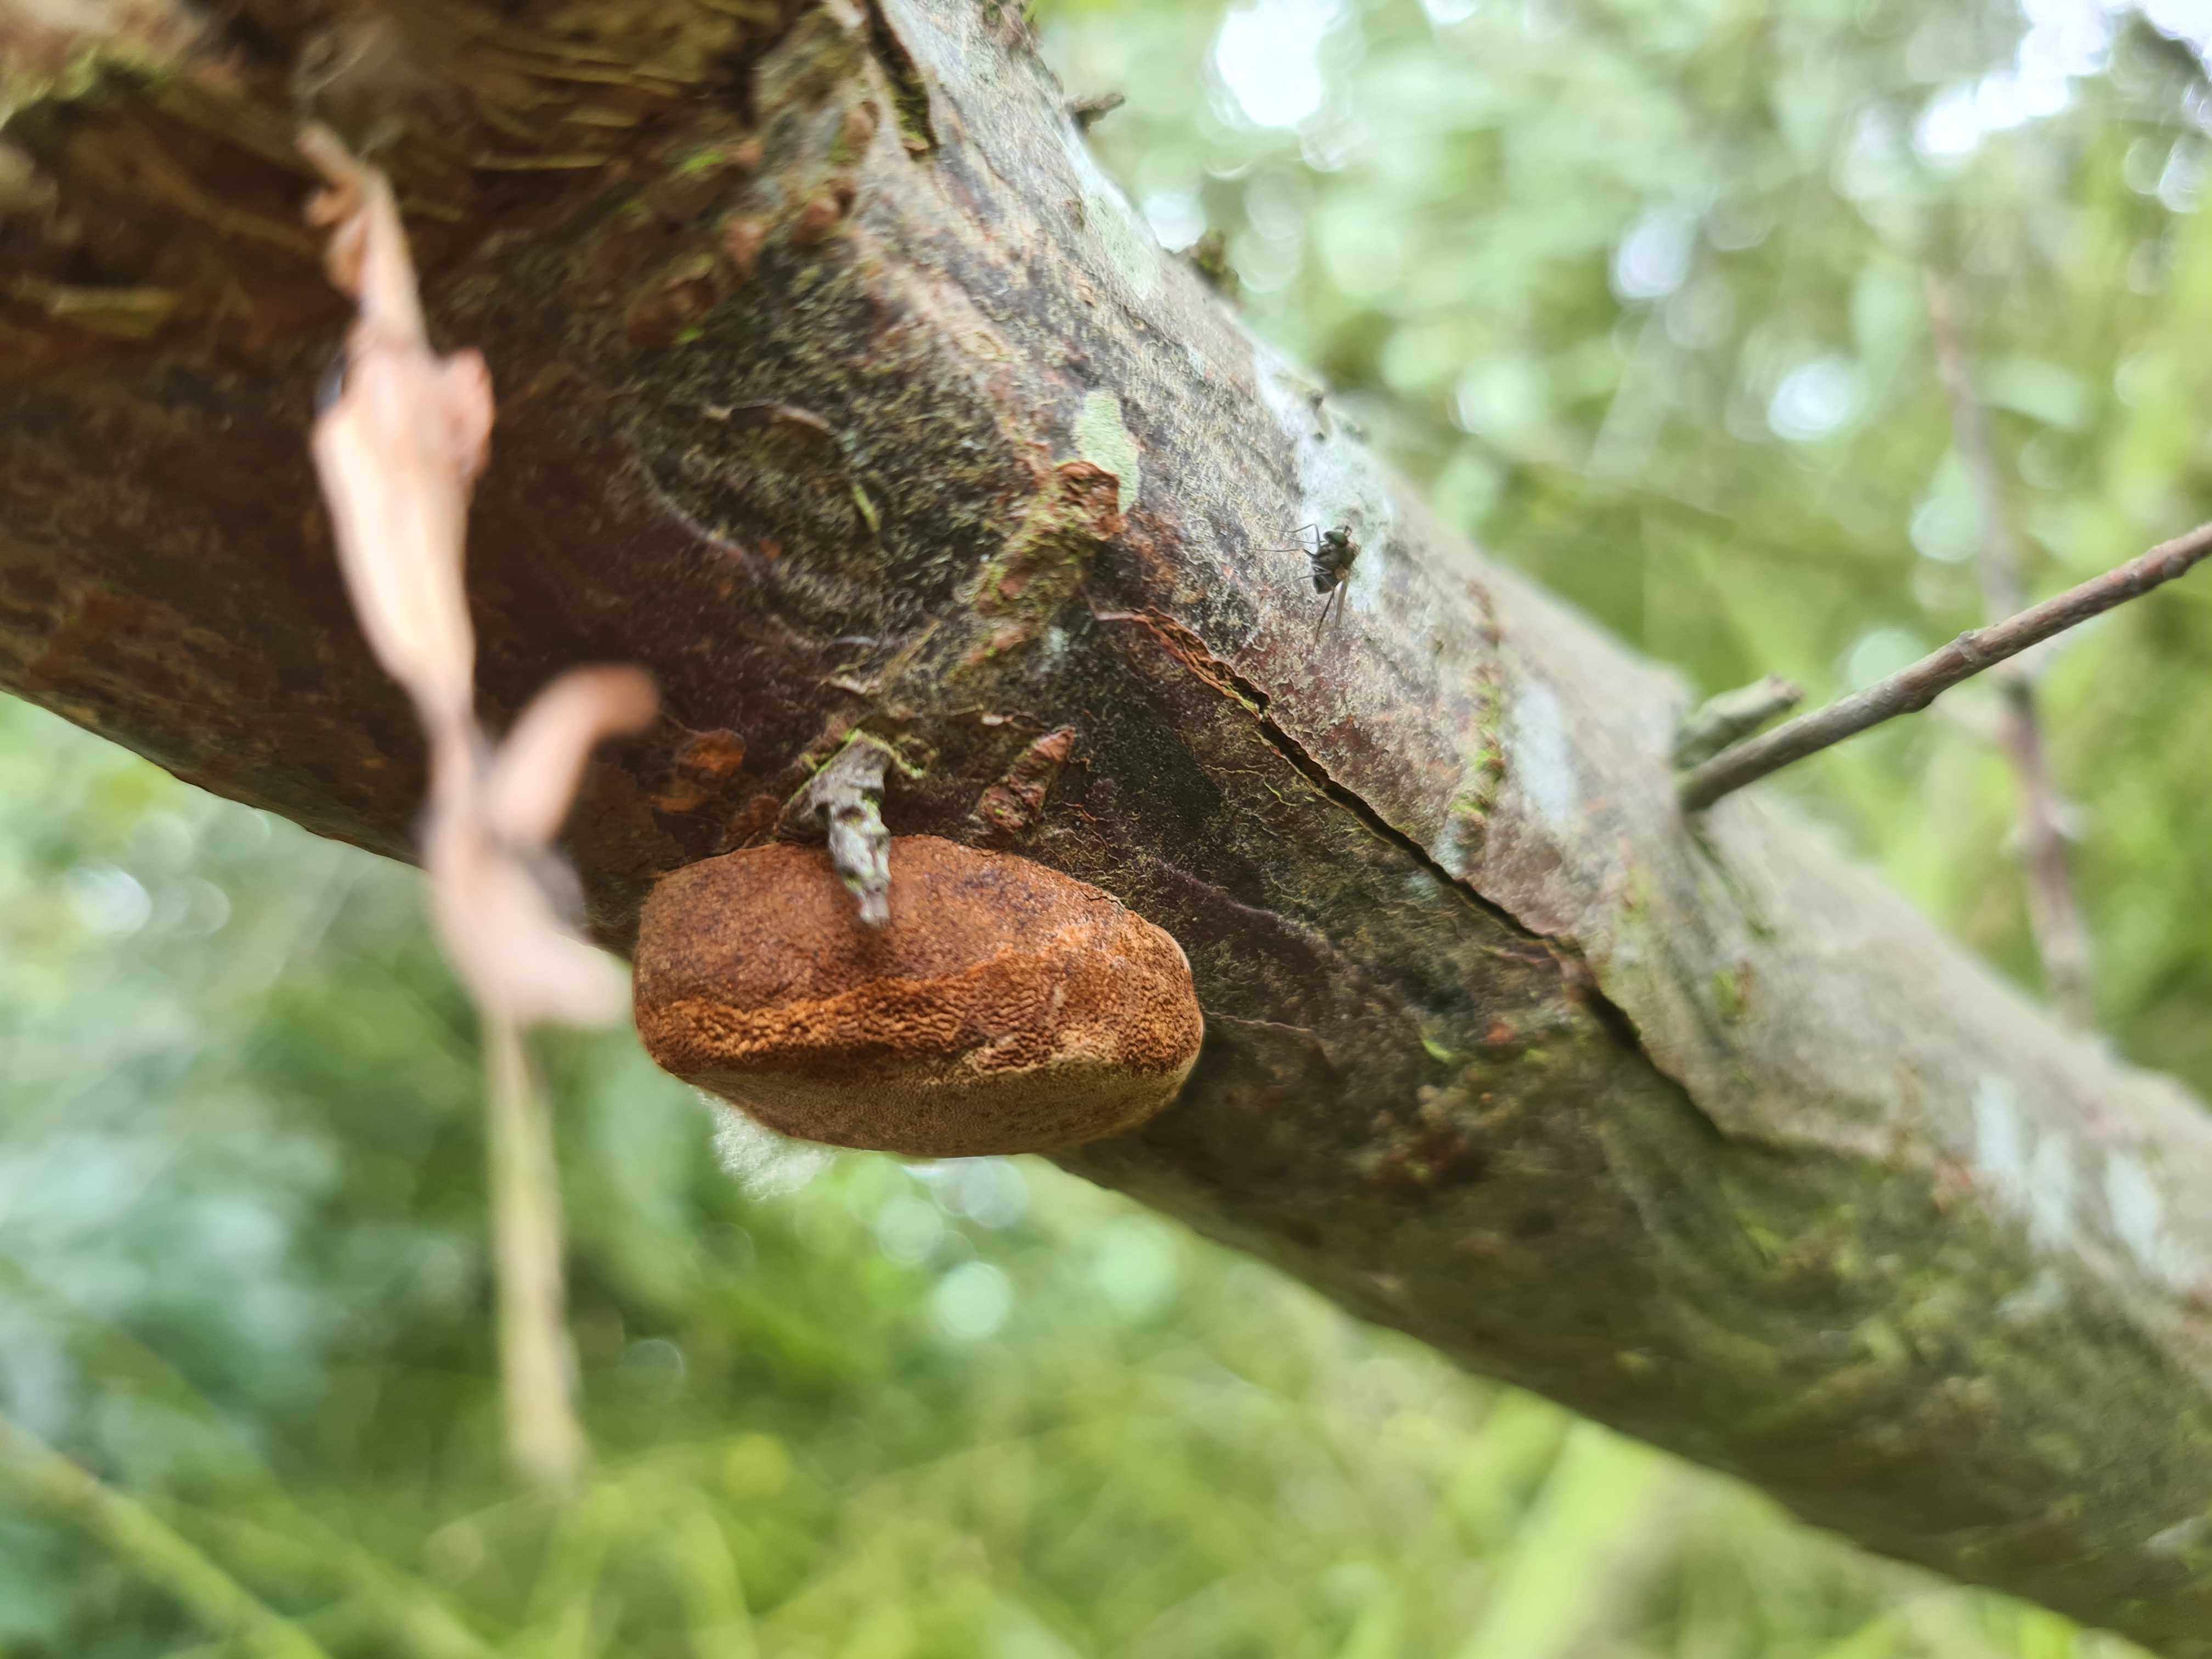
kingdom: Fungi
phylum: Basidiomycota
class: Agaricomycetes
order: Hymenochaetales
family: Hymenochaetaceae
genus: Fomitiporia
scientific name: Fomitiporia hippophaeicola
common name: havtorn-ildporesvamp
